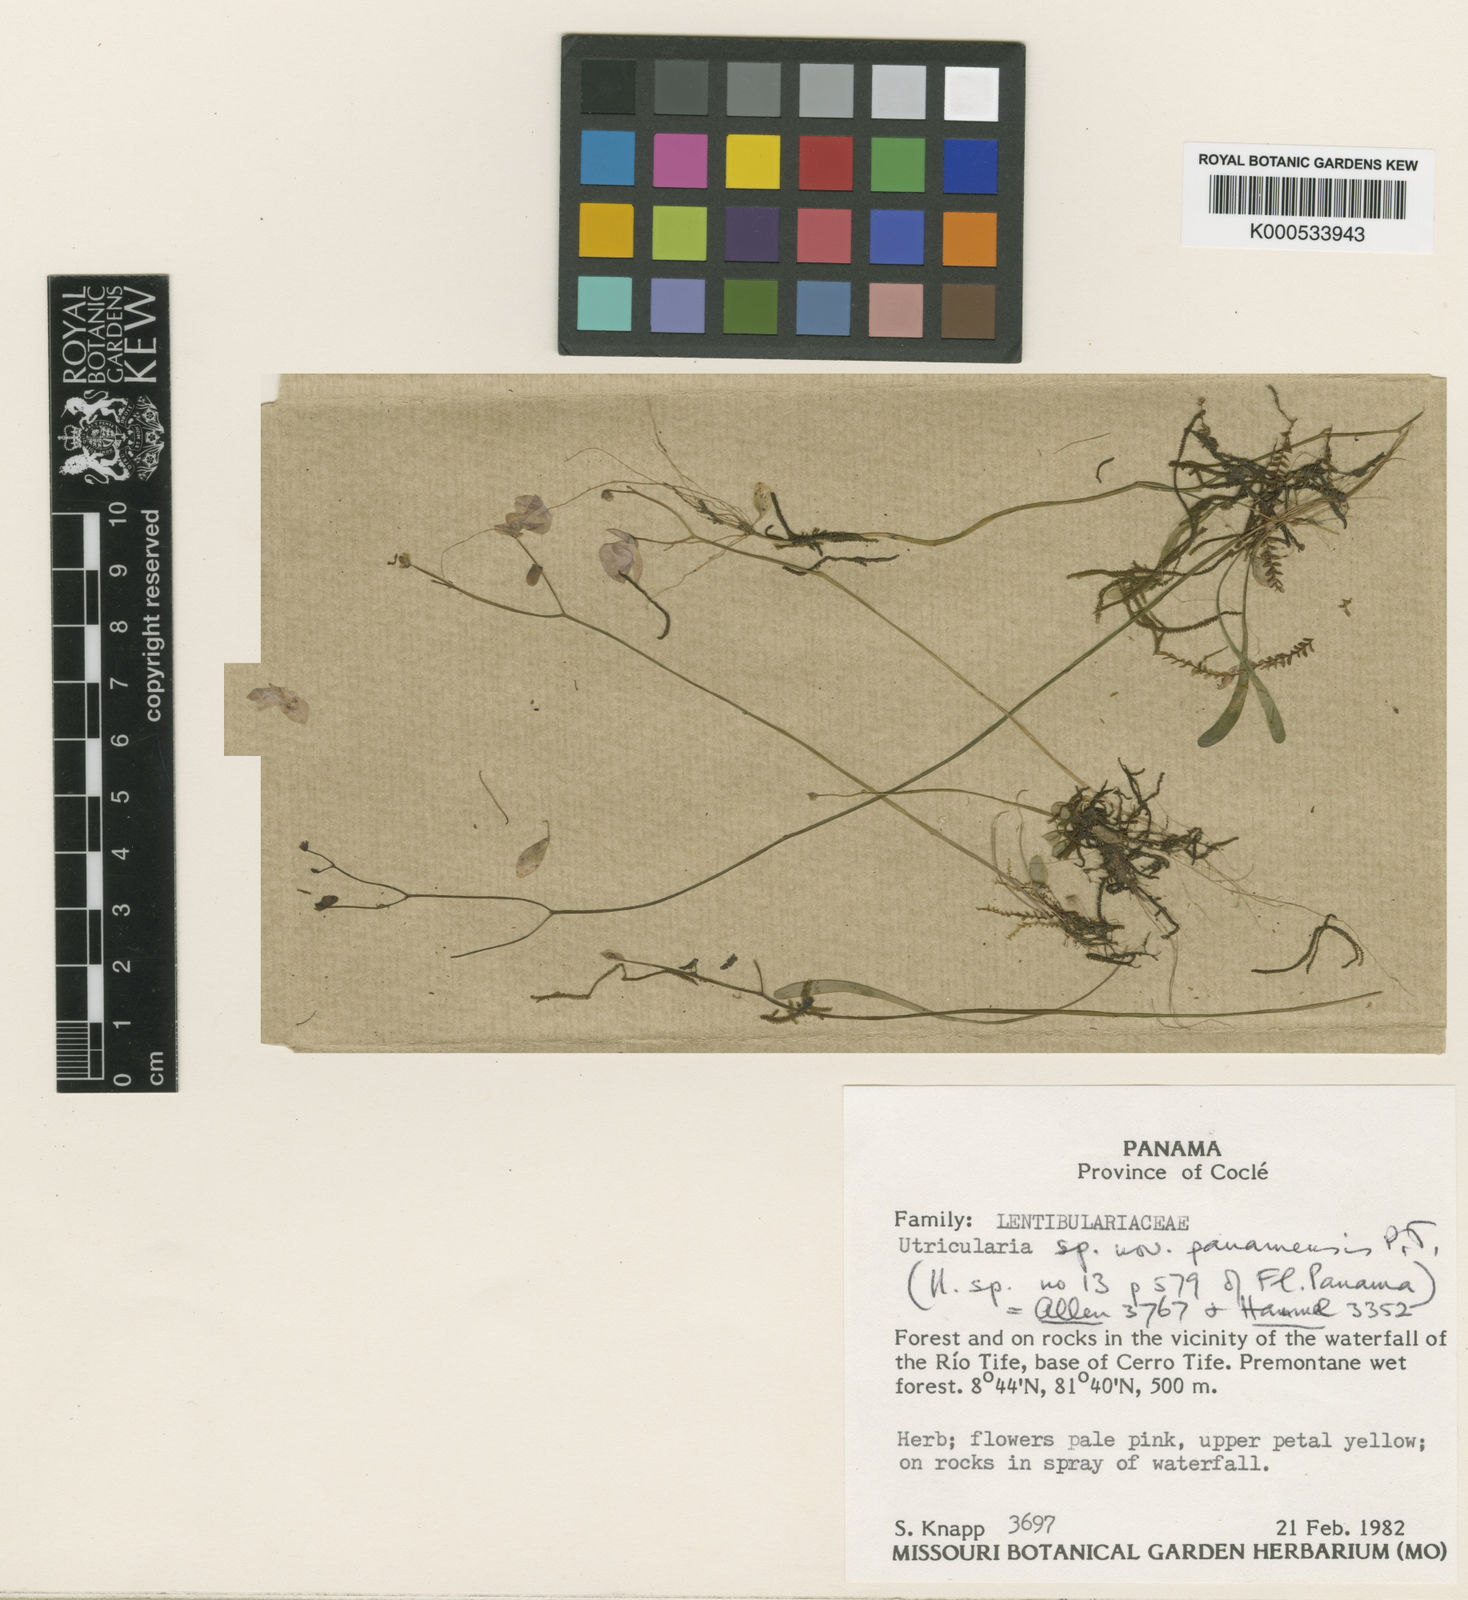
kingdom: Plantae
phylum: Tracheophyta
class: Magnoliopsida
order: Lamiales
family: Lentibulariaceae
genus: Utricularia
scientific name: Utricularia panamensis
